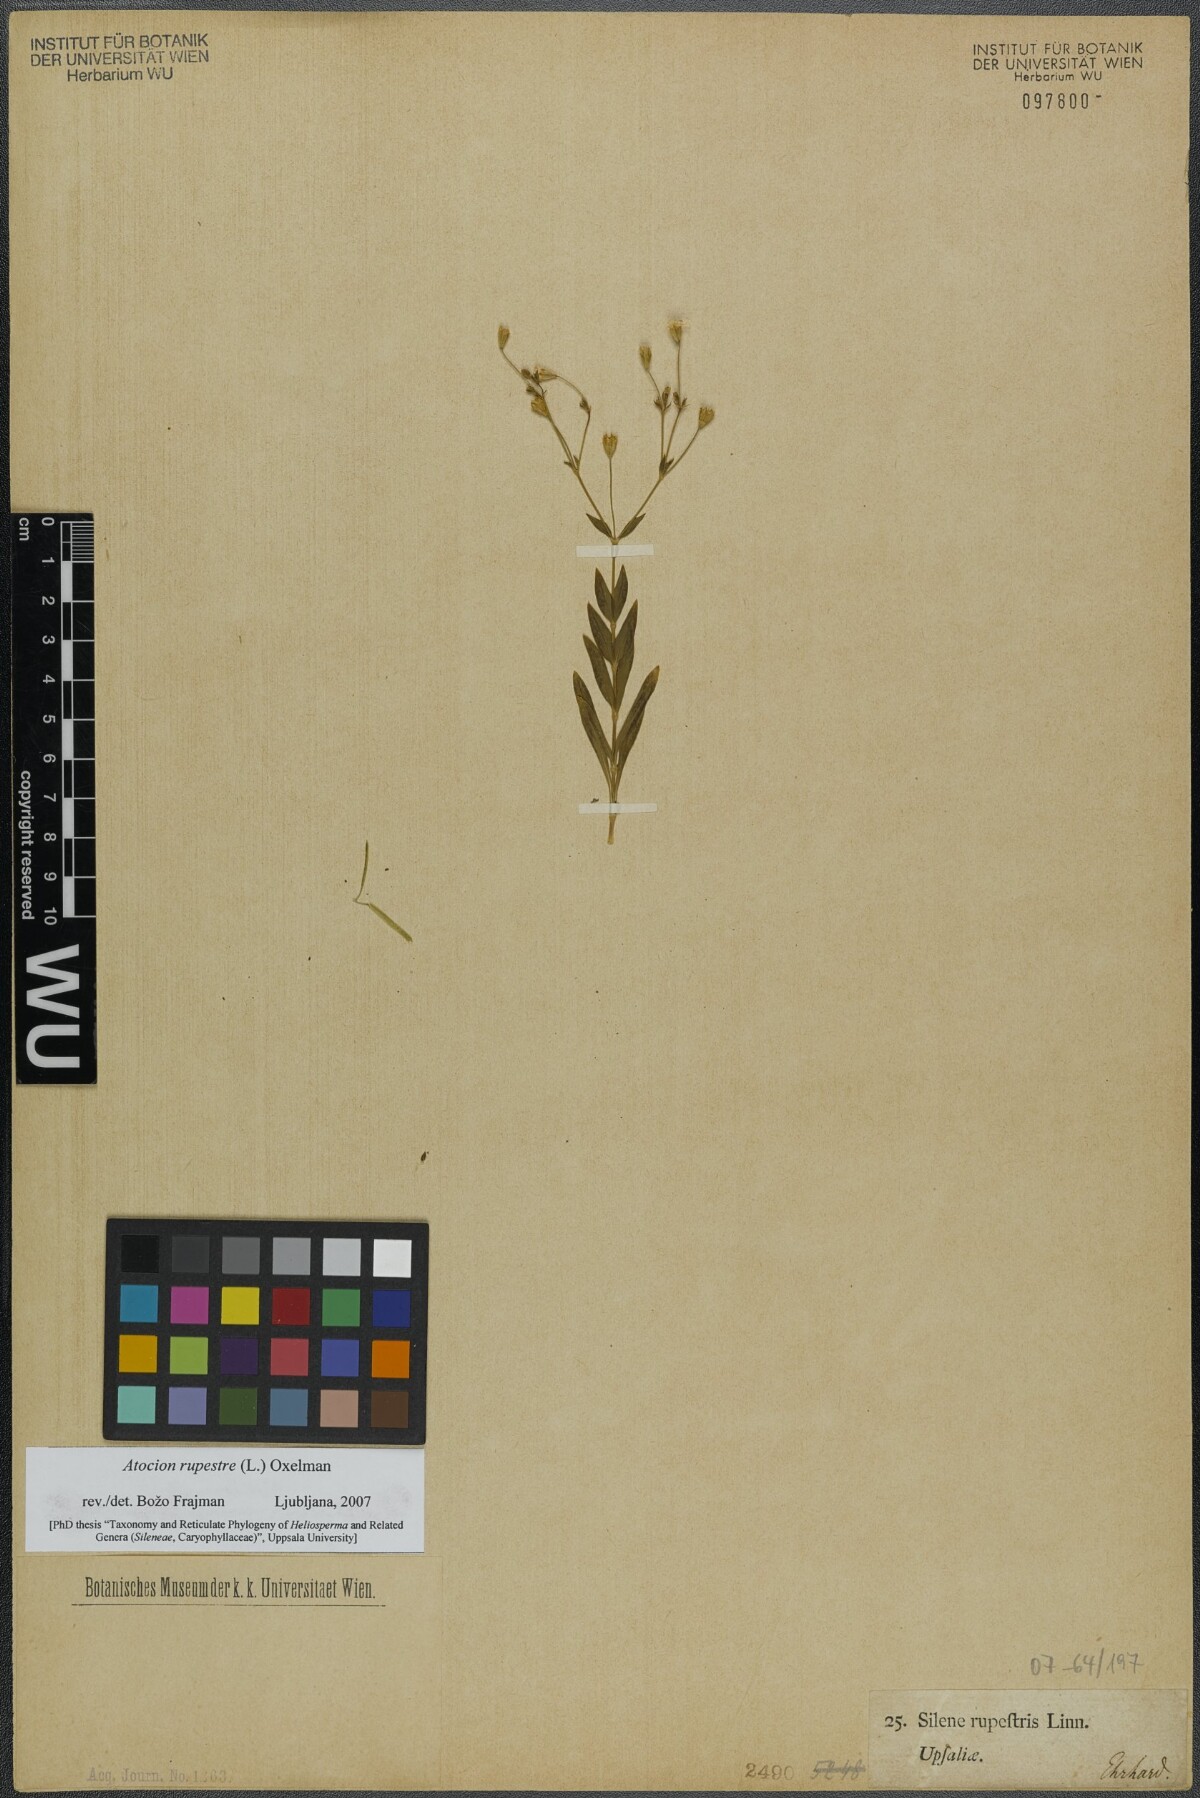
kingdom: Plantae
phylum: Tracheophyta
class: Magnoliopsida
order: Caryophyllales
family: Caryophyllaceae
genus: Atocion
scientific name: Atocion rupestre
